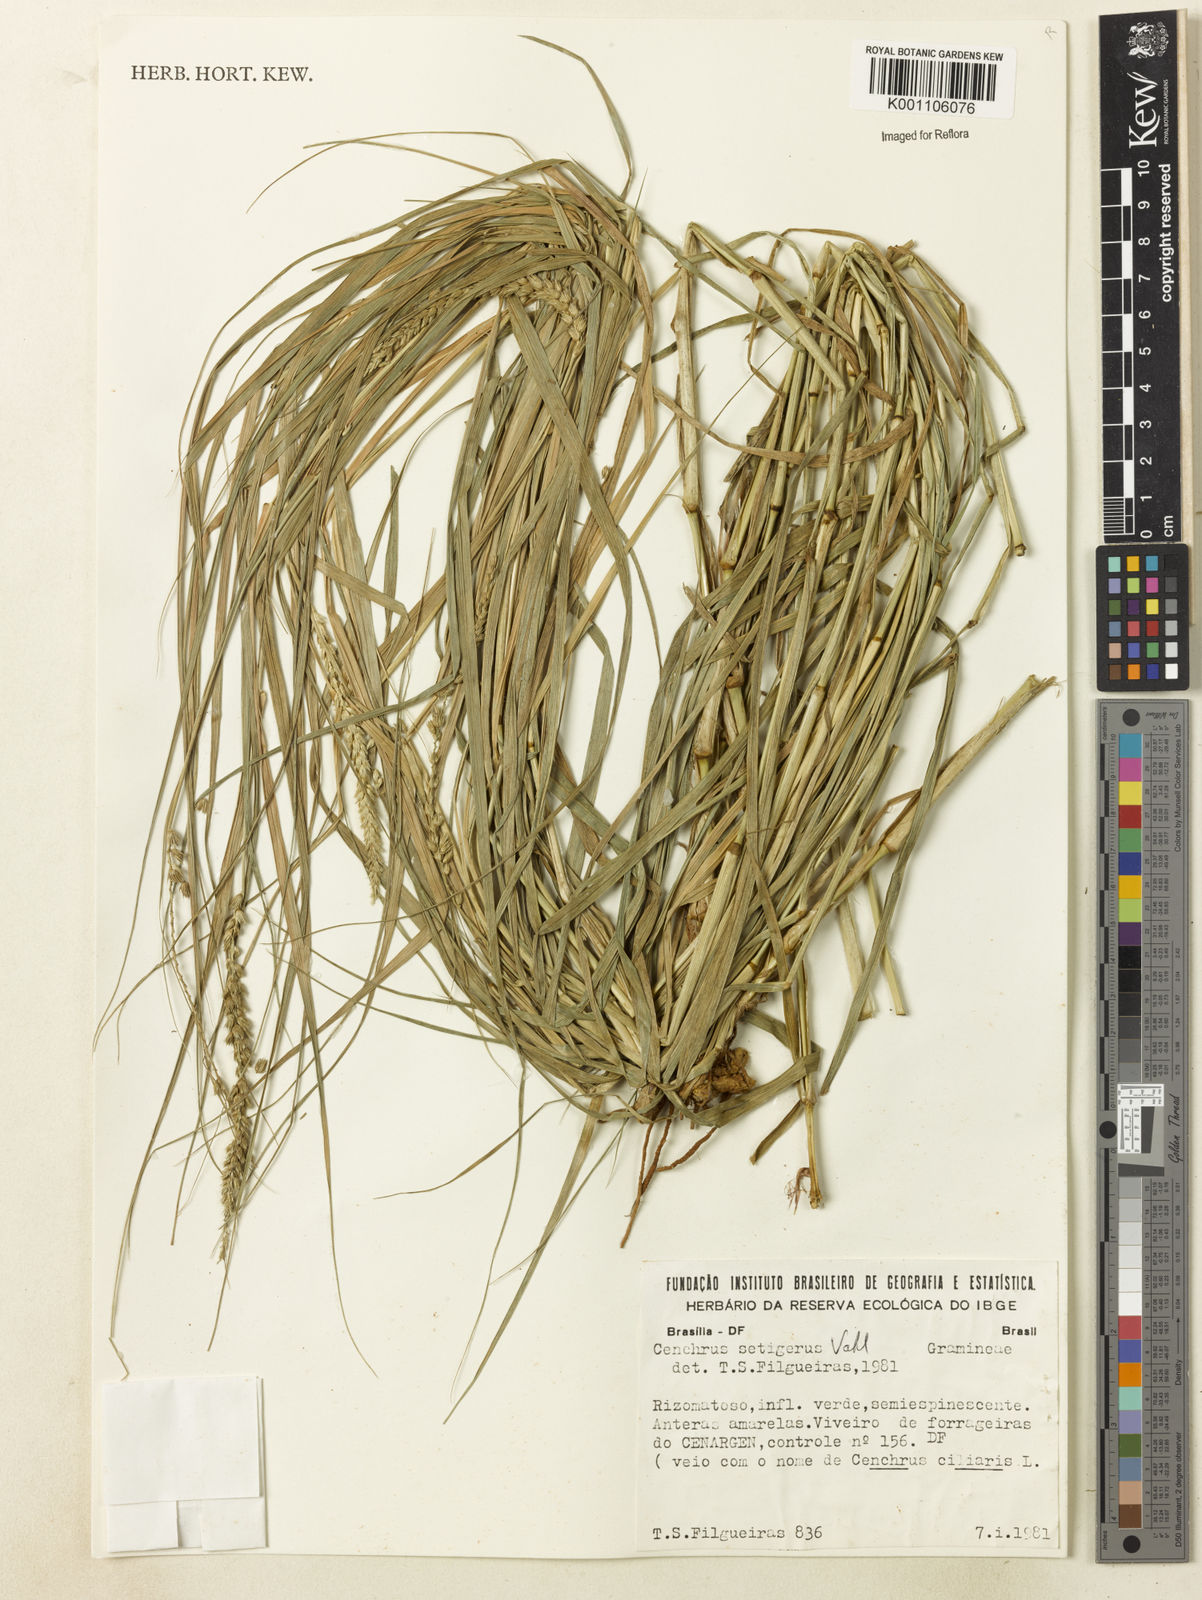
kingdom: Plantae
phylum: Tracheophyta
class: Liliopsida
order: Poales
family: Poaceae
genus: Cenchrus
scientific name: Cenchrus setigerus
